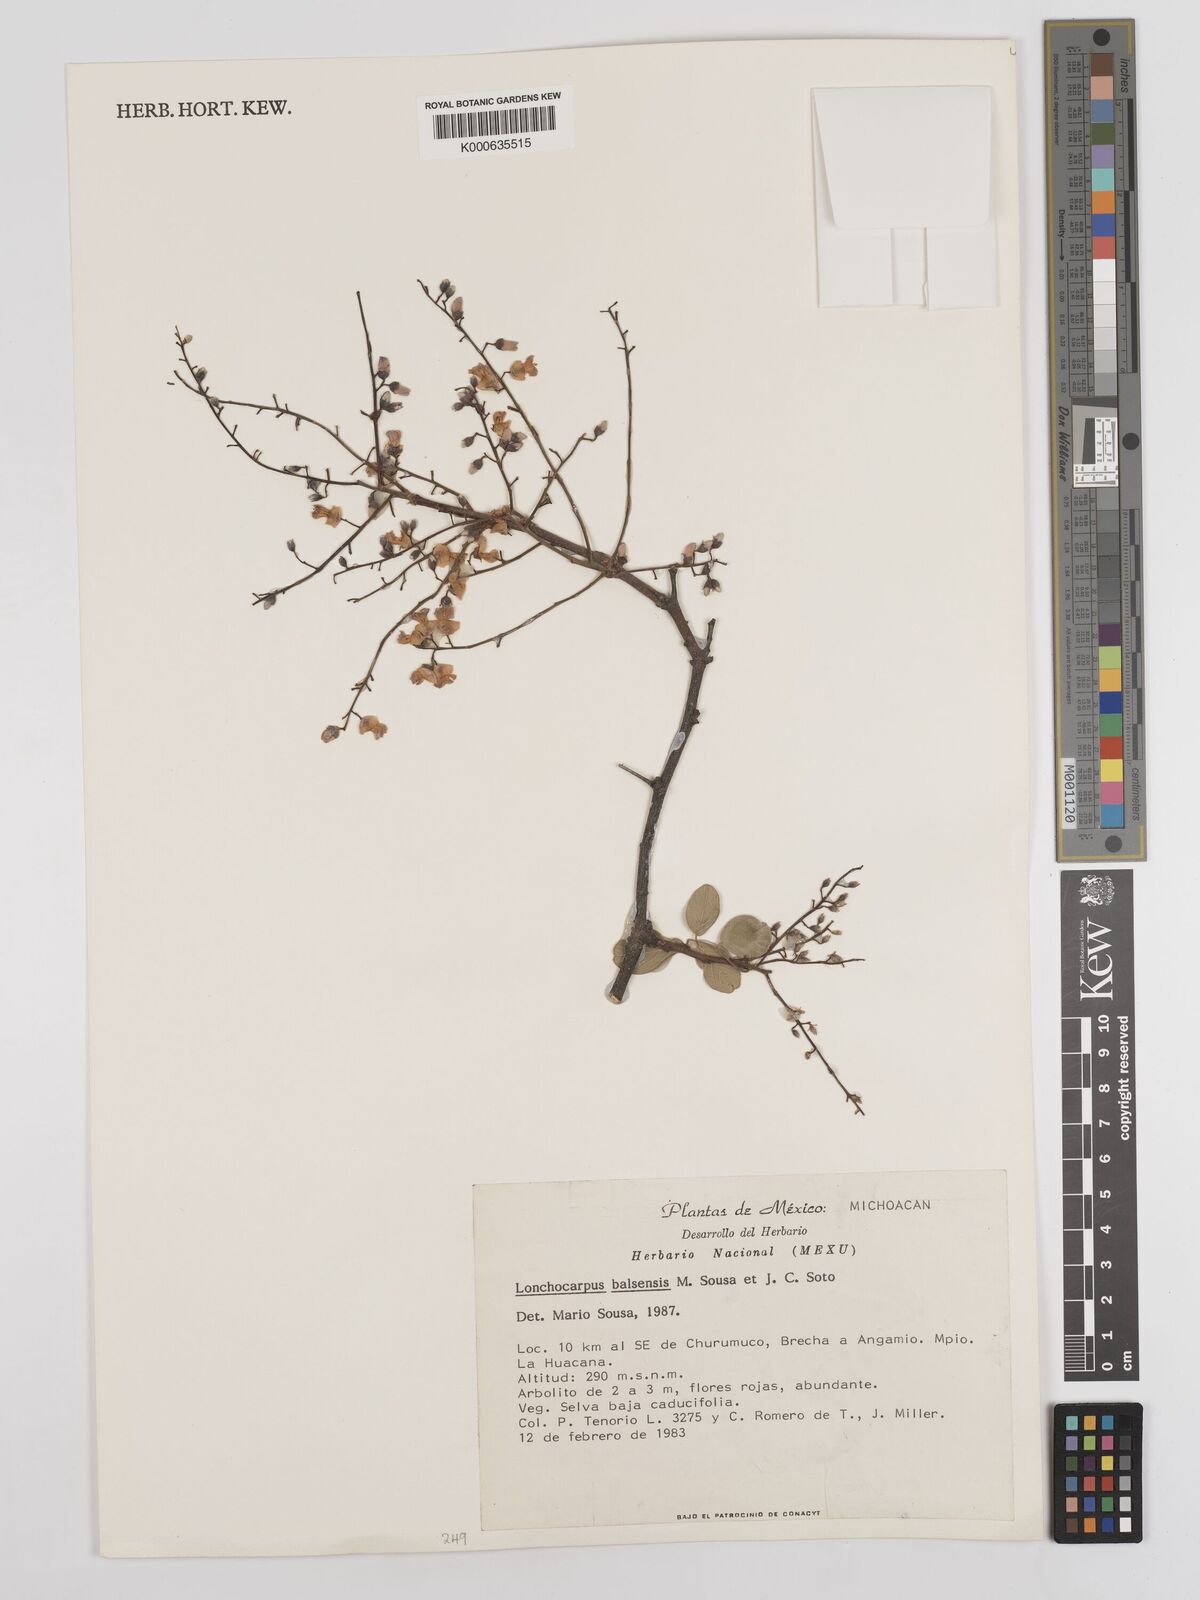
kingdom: Plantae
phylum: Tracheophyta
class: Magnoliopsida
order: Fabales
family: Fabaceae
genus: Lonchocarpus
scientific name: Lonchocarpus balsensis
